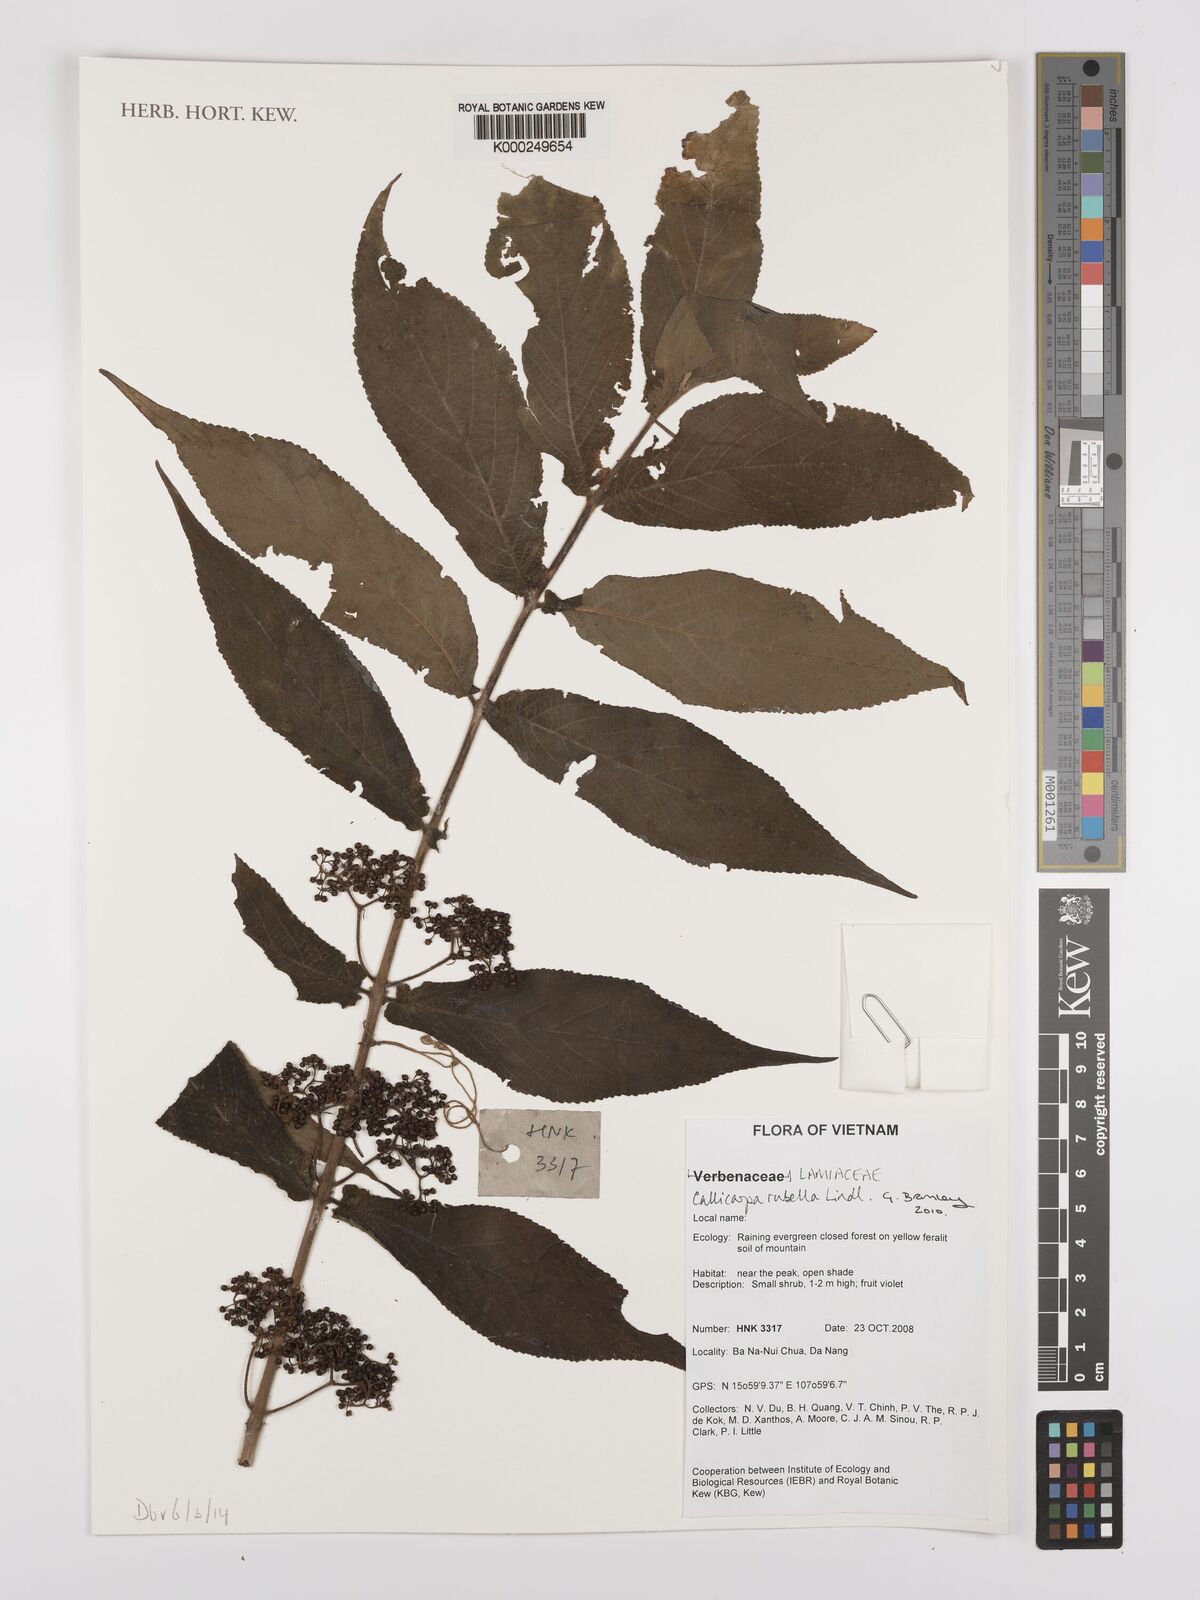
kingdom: Plantae
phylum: Tracheophyta
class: Magnoliopsida
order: Lamiales
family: Lamiaceae
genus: Callicarpa
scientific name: Callicarpa rubella
